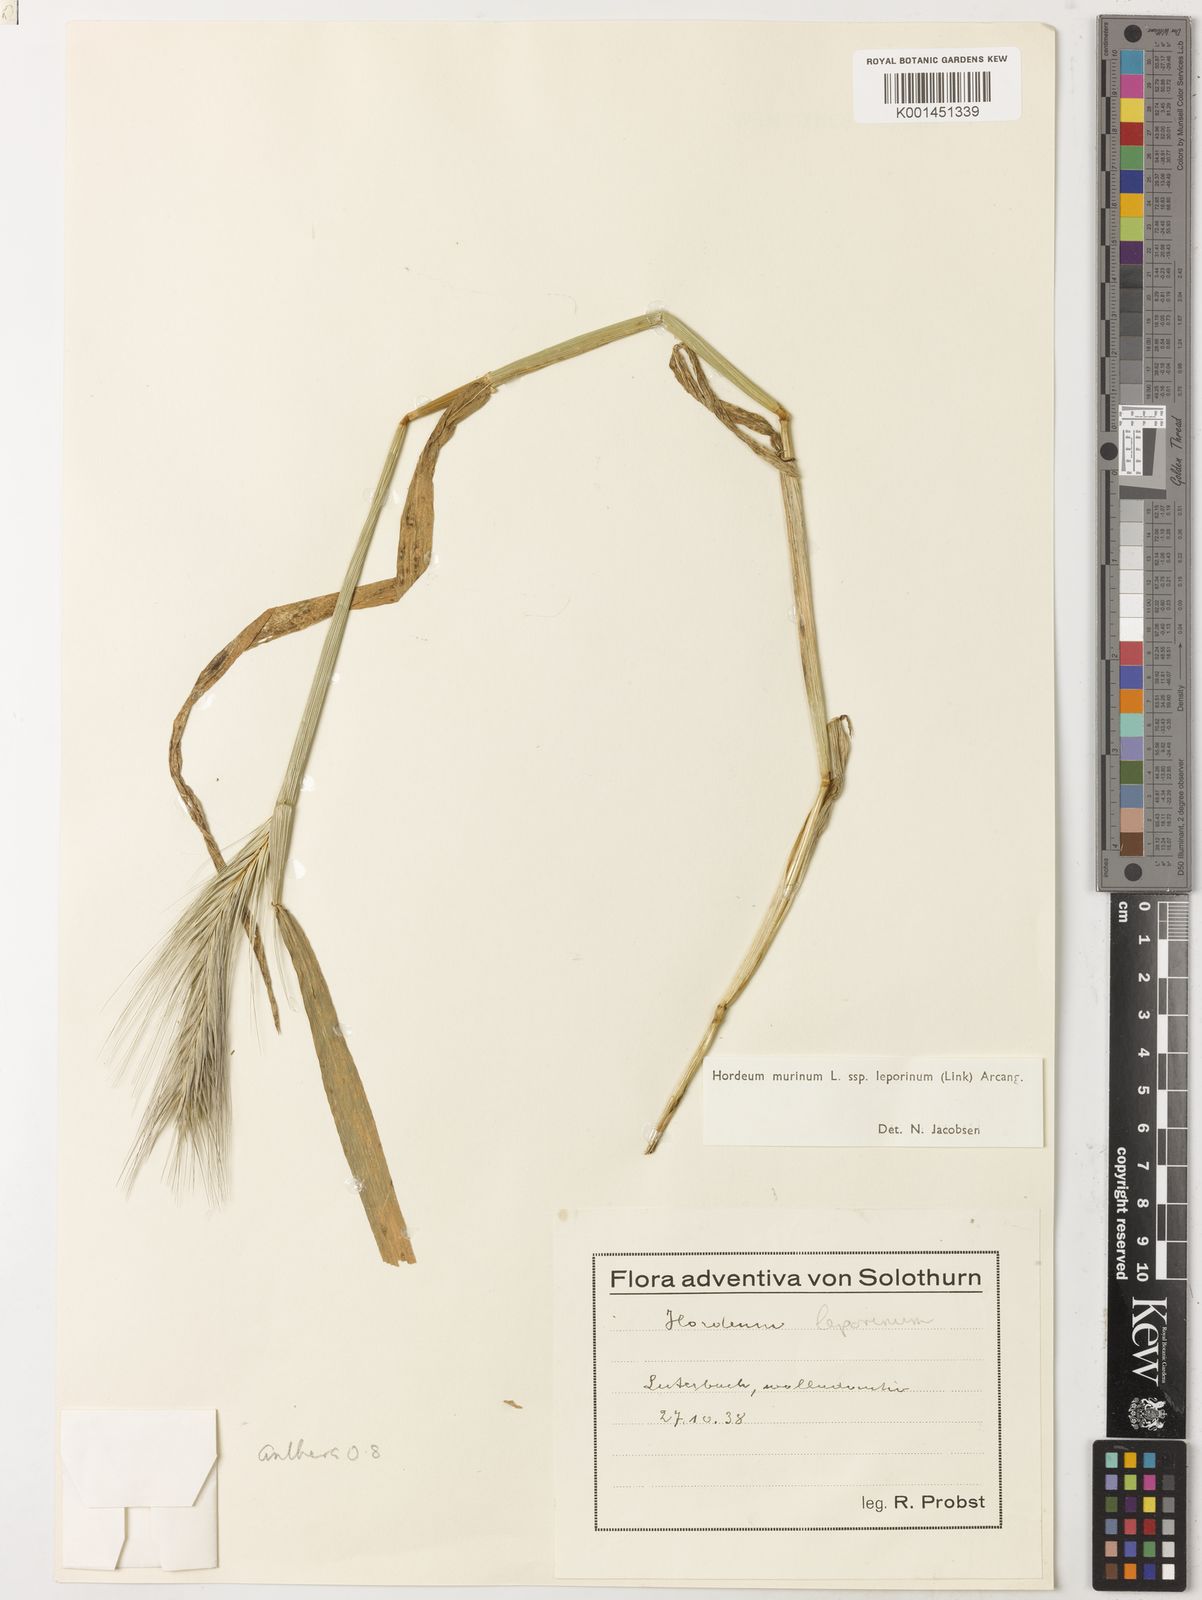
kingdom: Plantae
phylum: Tracheophyta
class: Liliopsida
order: Poales
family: Poaceae
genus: Hordeum
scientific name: Hordeum murinum
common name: Wall barley
